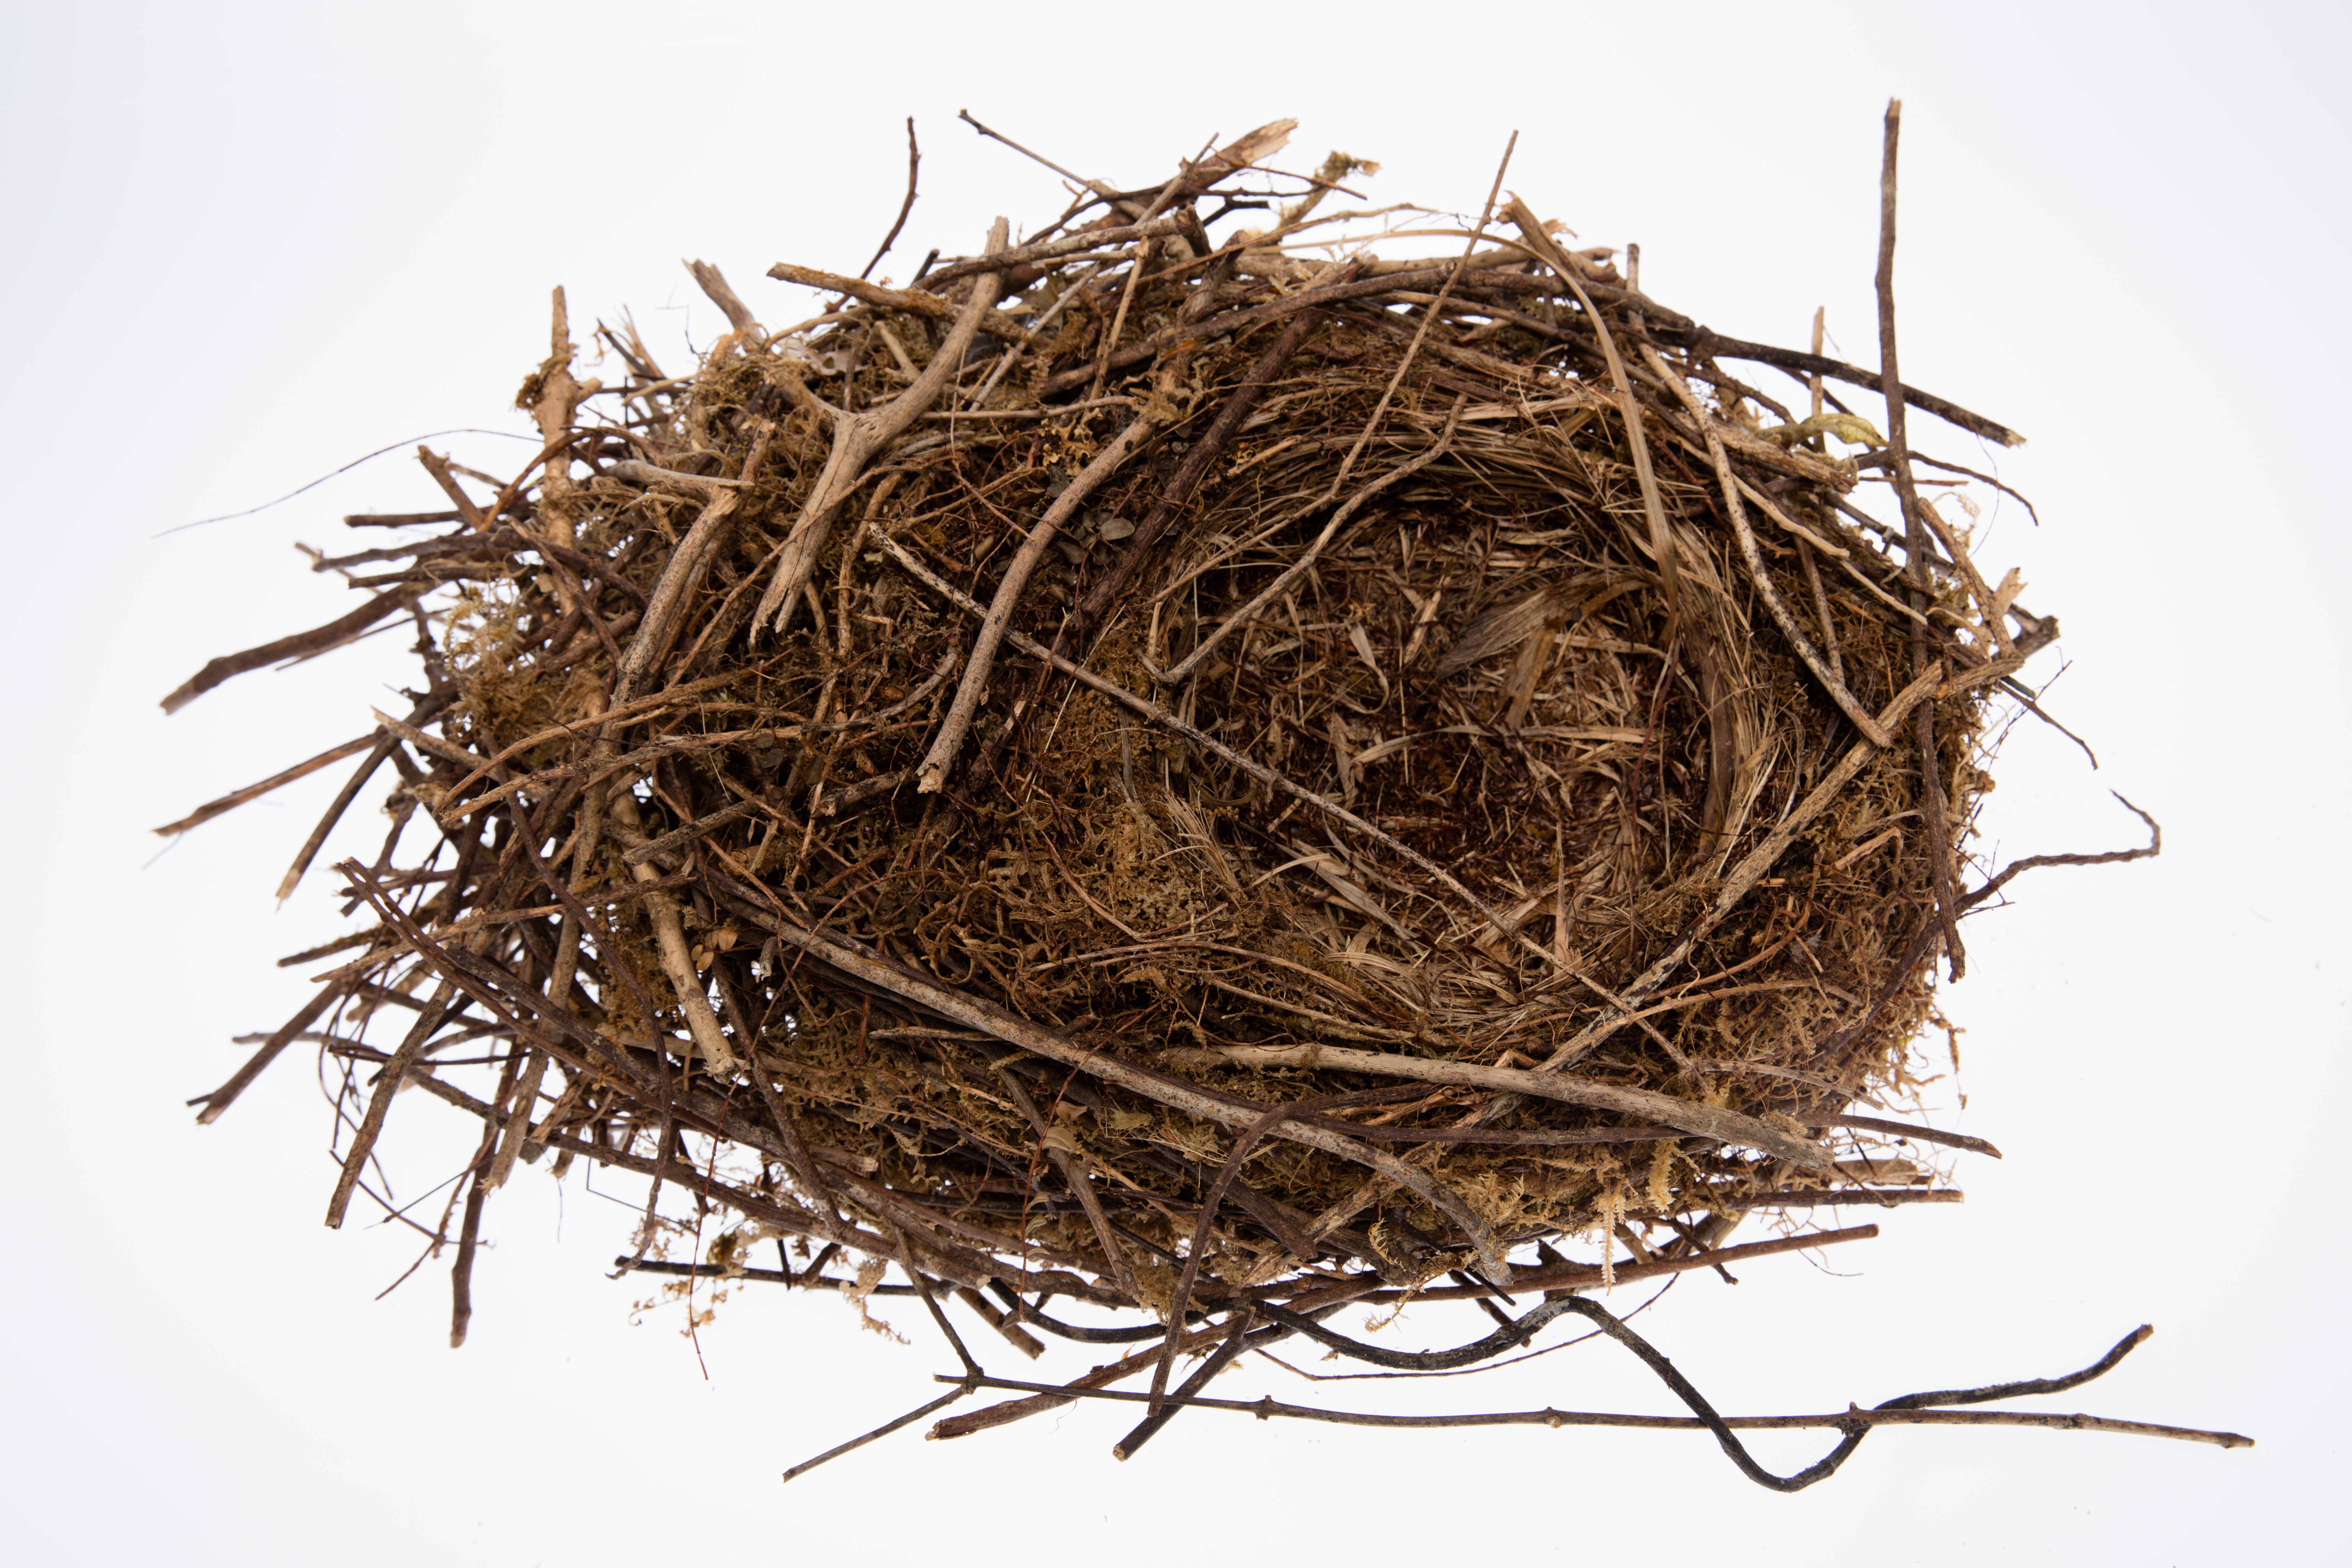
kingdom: Animalia
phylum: Chordata
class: Aves
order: Passeriformes
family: Callaeatidae
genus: Callaeas
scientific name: Callaeas cinereus
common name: South island kokako
